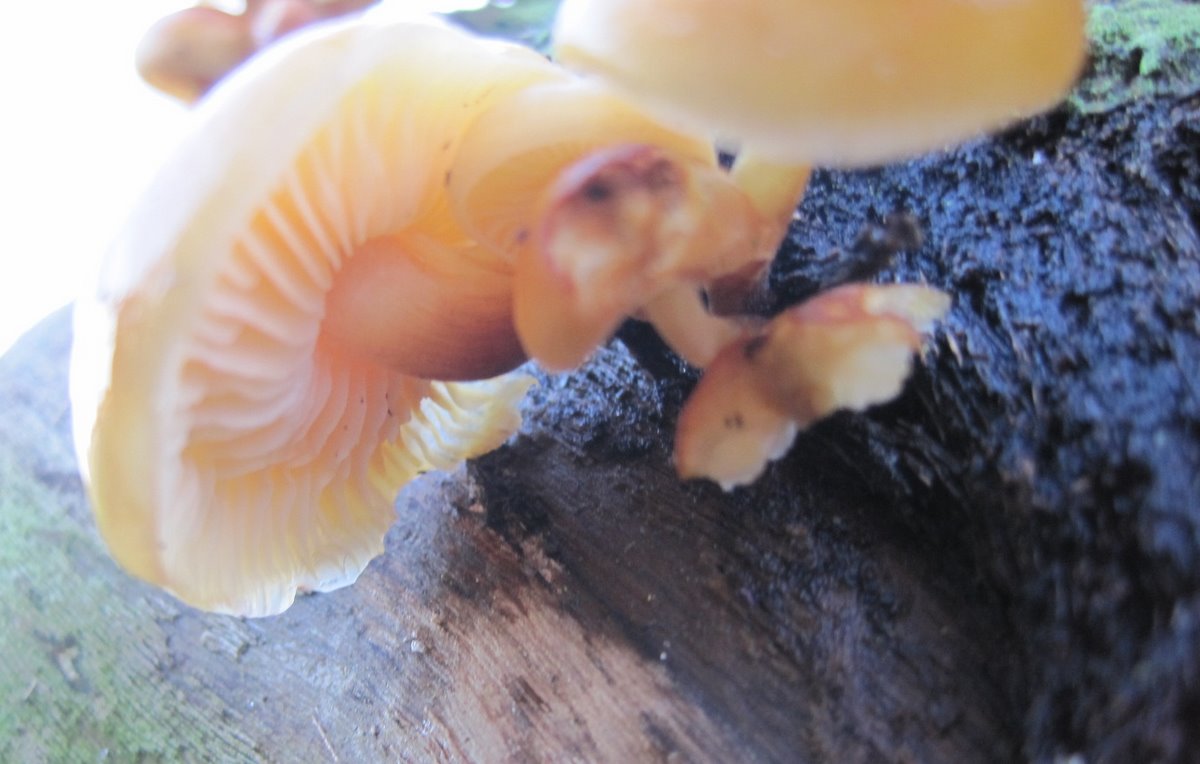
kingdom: Fungi
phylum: Basidiomycota
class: Agaricomycetes
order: Agaricales
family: Physalacriaceae
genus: Flammulina
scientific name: Flammulina velutipes
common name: gul fløjlsfod
